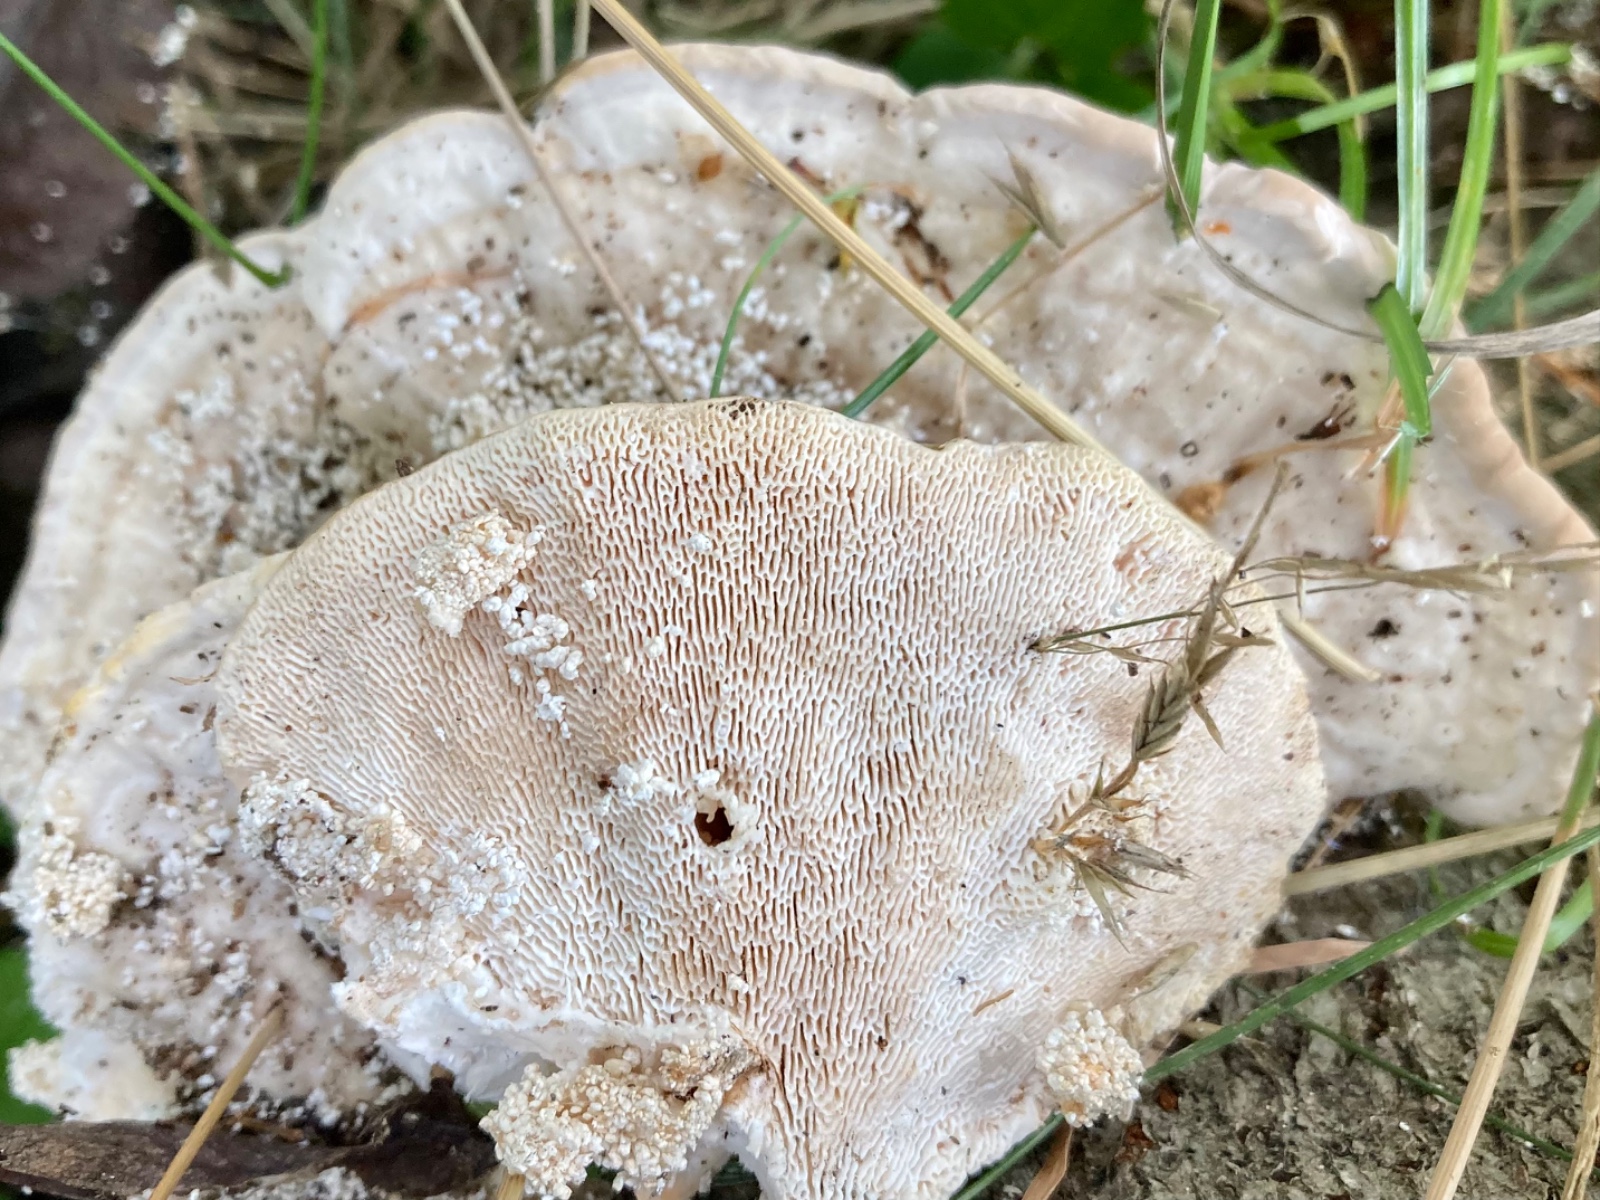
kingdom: Fungi
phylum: Basidiomycota
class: Agaricomycetes
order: Polyporales
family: Polyporaceae
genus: Trametes
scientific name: Trametes gibbosa
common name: puklet læderporesvamp
